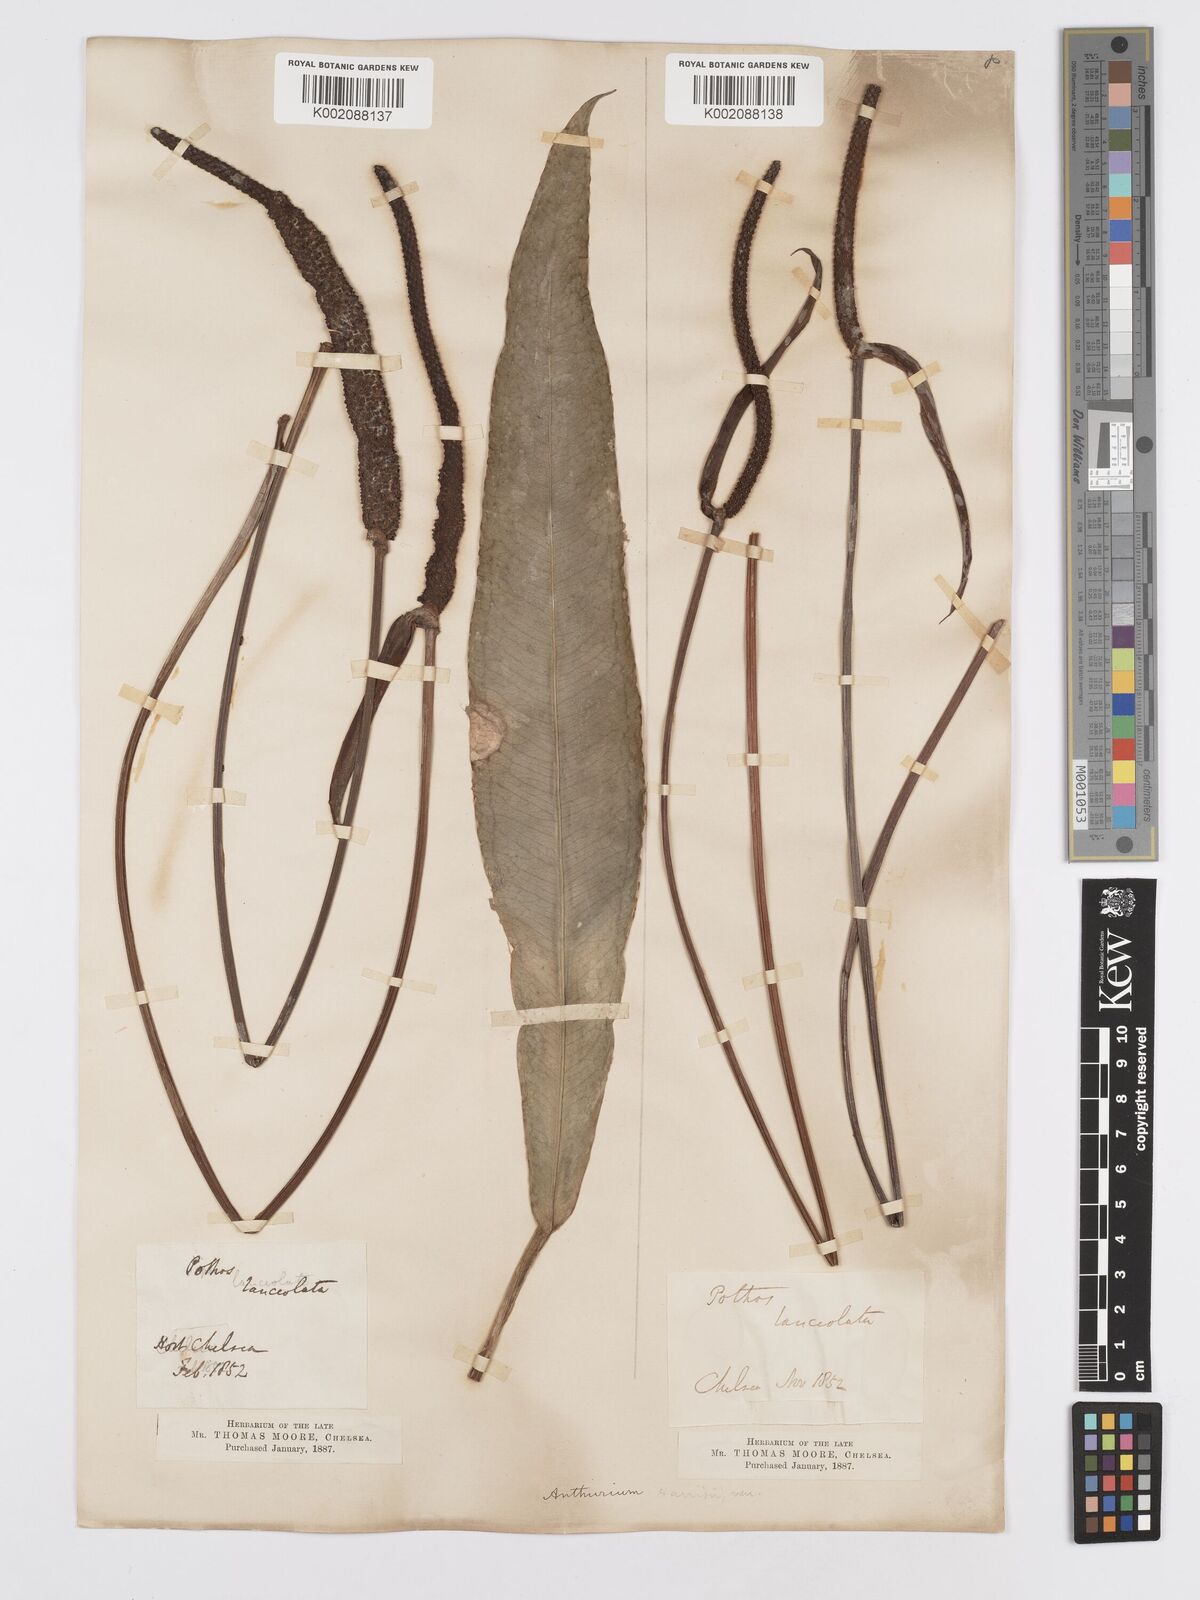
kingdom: Plantae
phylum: Tracheophyta
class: Liliopsida
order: Alismatales
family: Araceae
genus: Anthurium
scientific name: Anthurium
